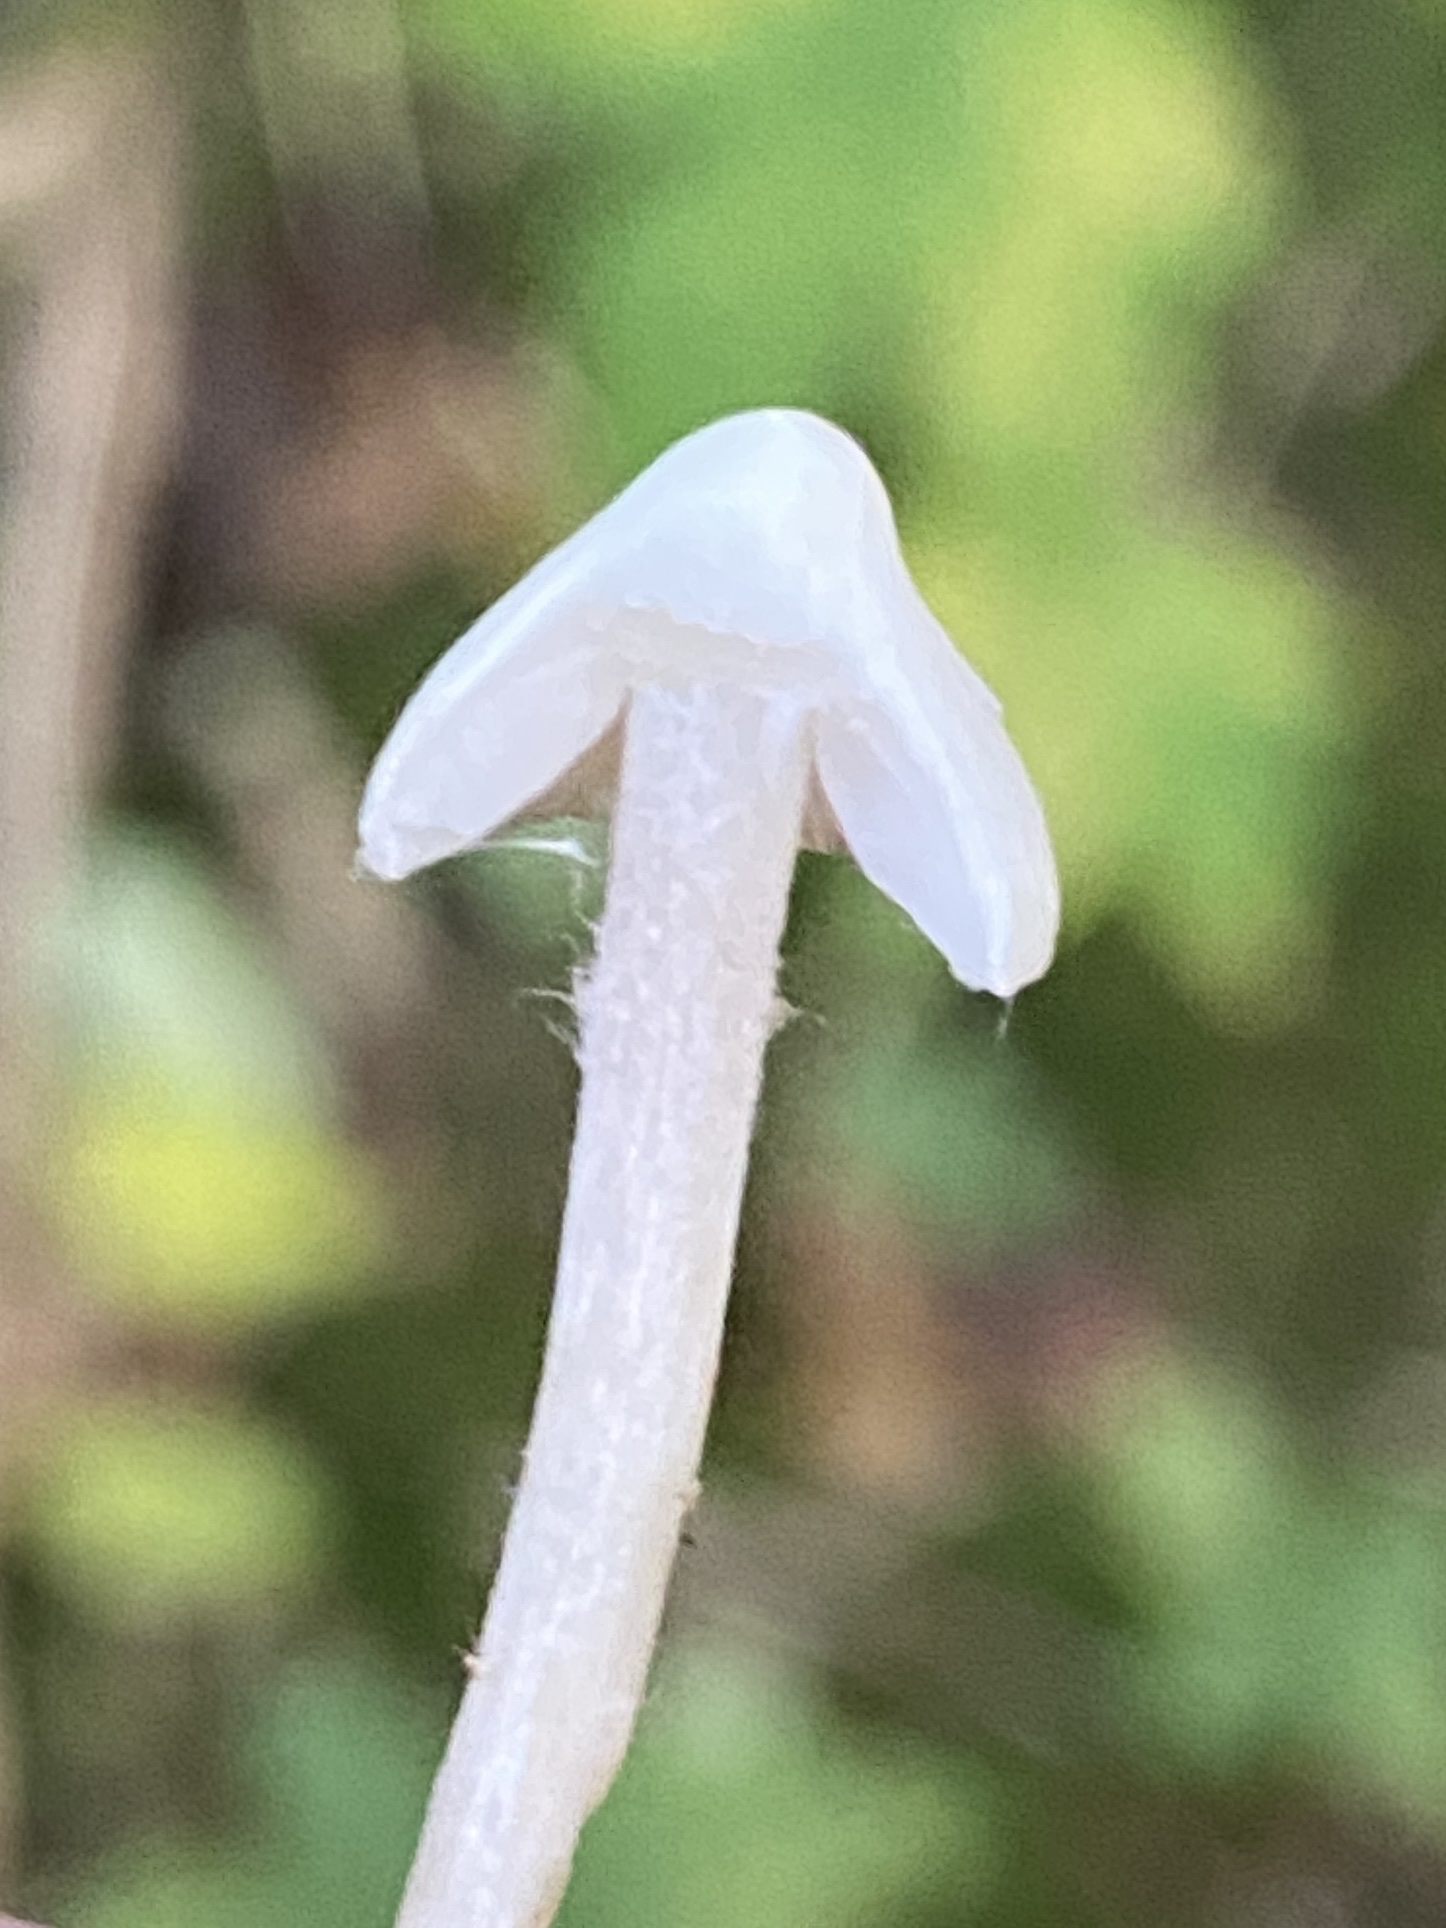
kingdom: Fungi
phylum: Basidiomycota
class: Agaricomycetes
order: Agaricales
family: Inocybaceae
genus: Inocybe
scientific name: Inocybe
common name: trævlhat
